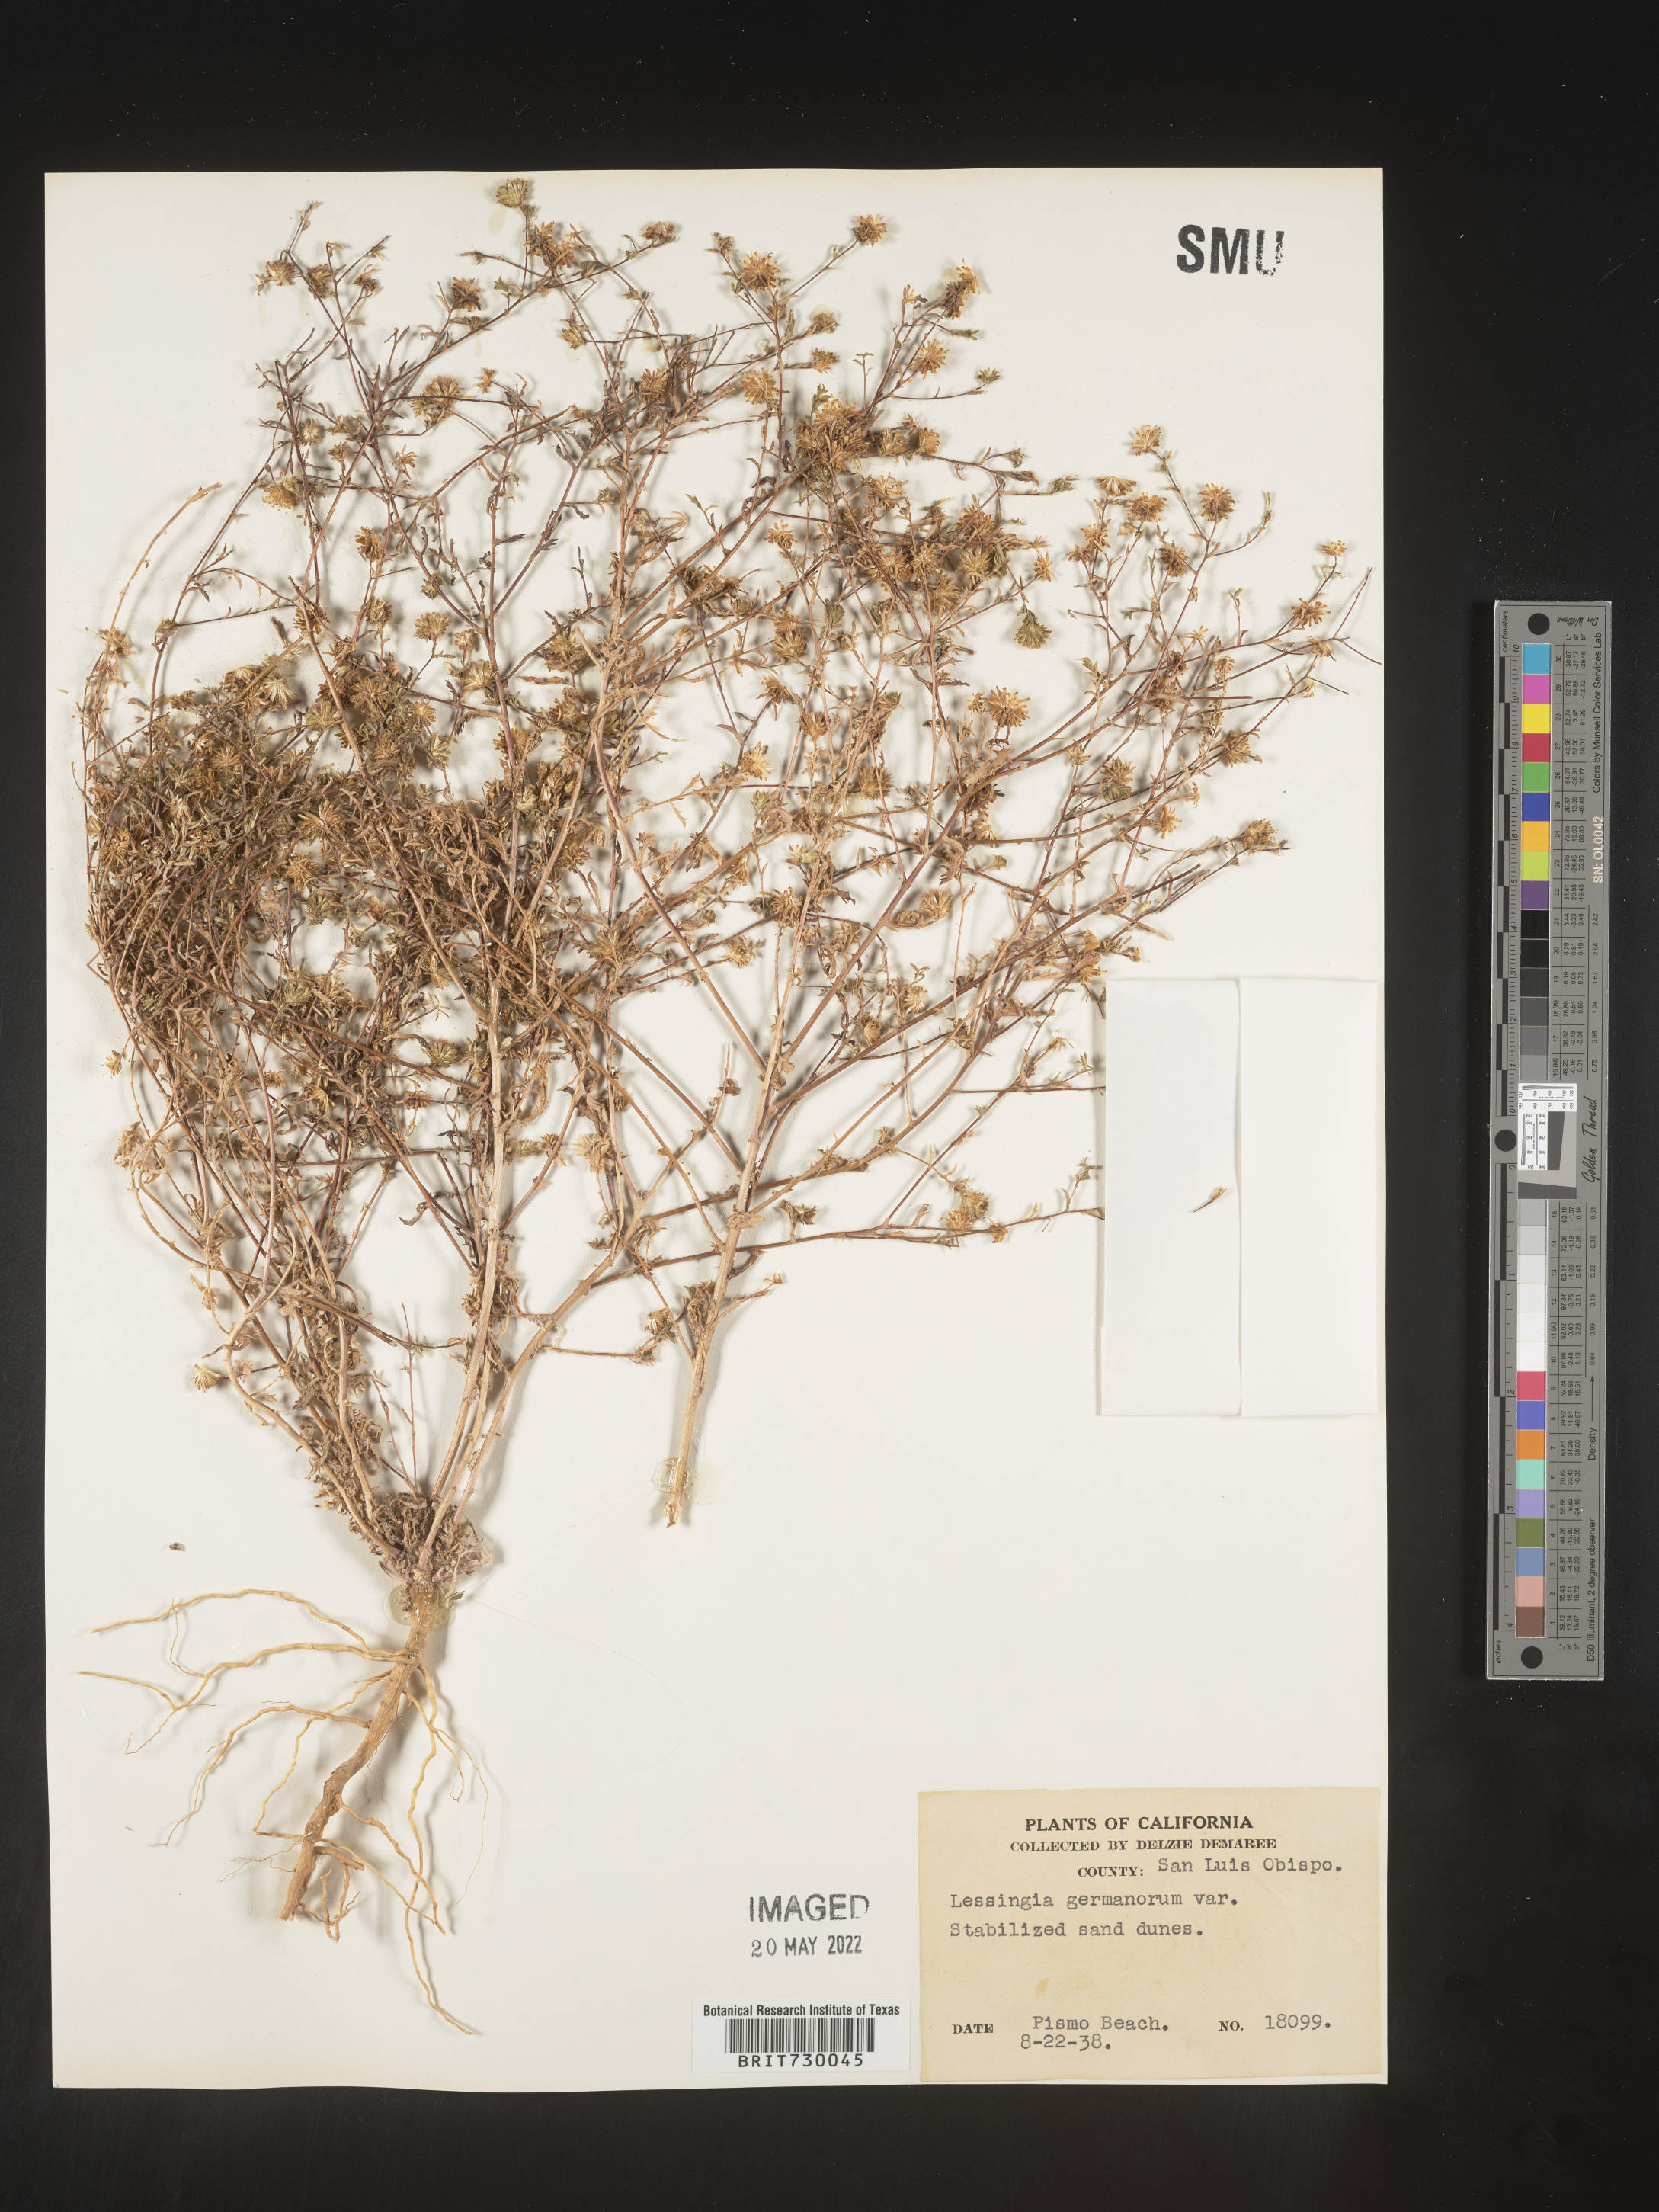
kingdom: Plantae
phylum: Tracheophyta
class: Magnoliopsida
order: Asterales
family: Asteraceae
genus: Lessingia
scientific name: Lessingia
